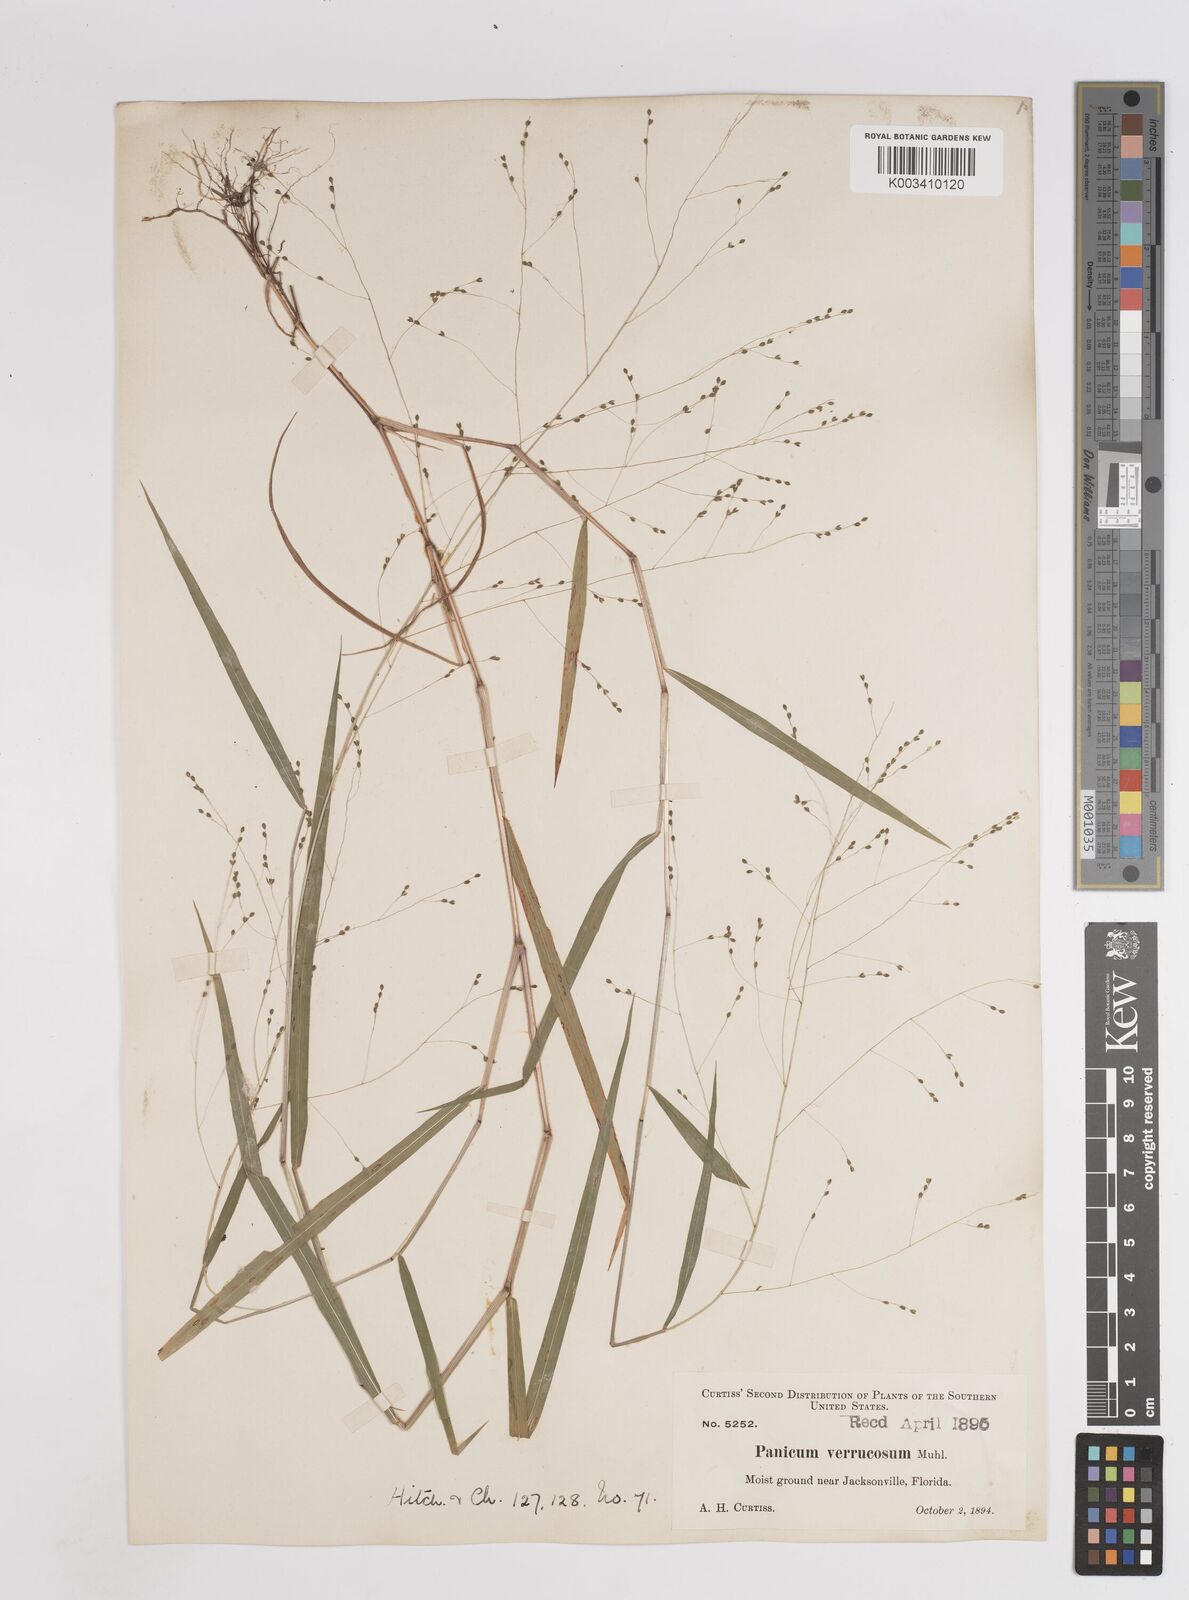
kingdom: Plantae
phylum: Tracheophyta
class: Liliopsida
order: Poales
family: Poaceae
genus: Kellochloa
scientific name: Kellochloa verrucosa
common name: Warty panic grass
